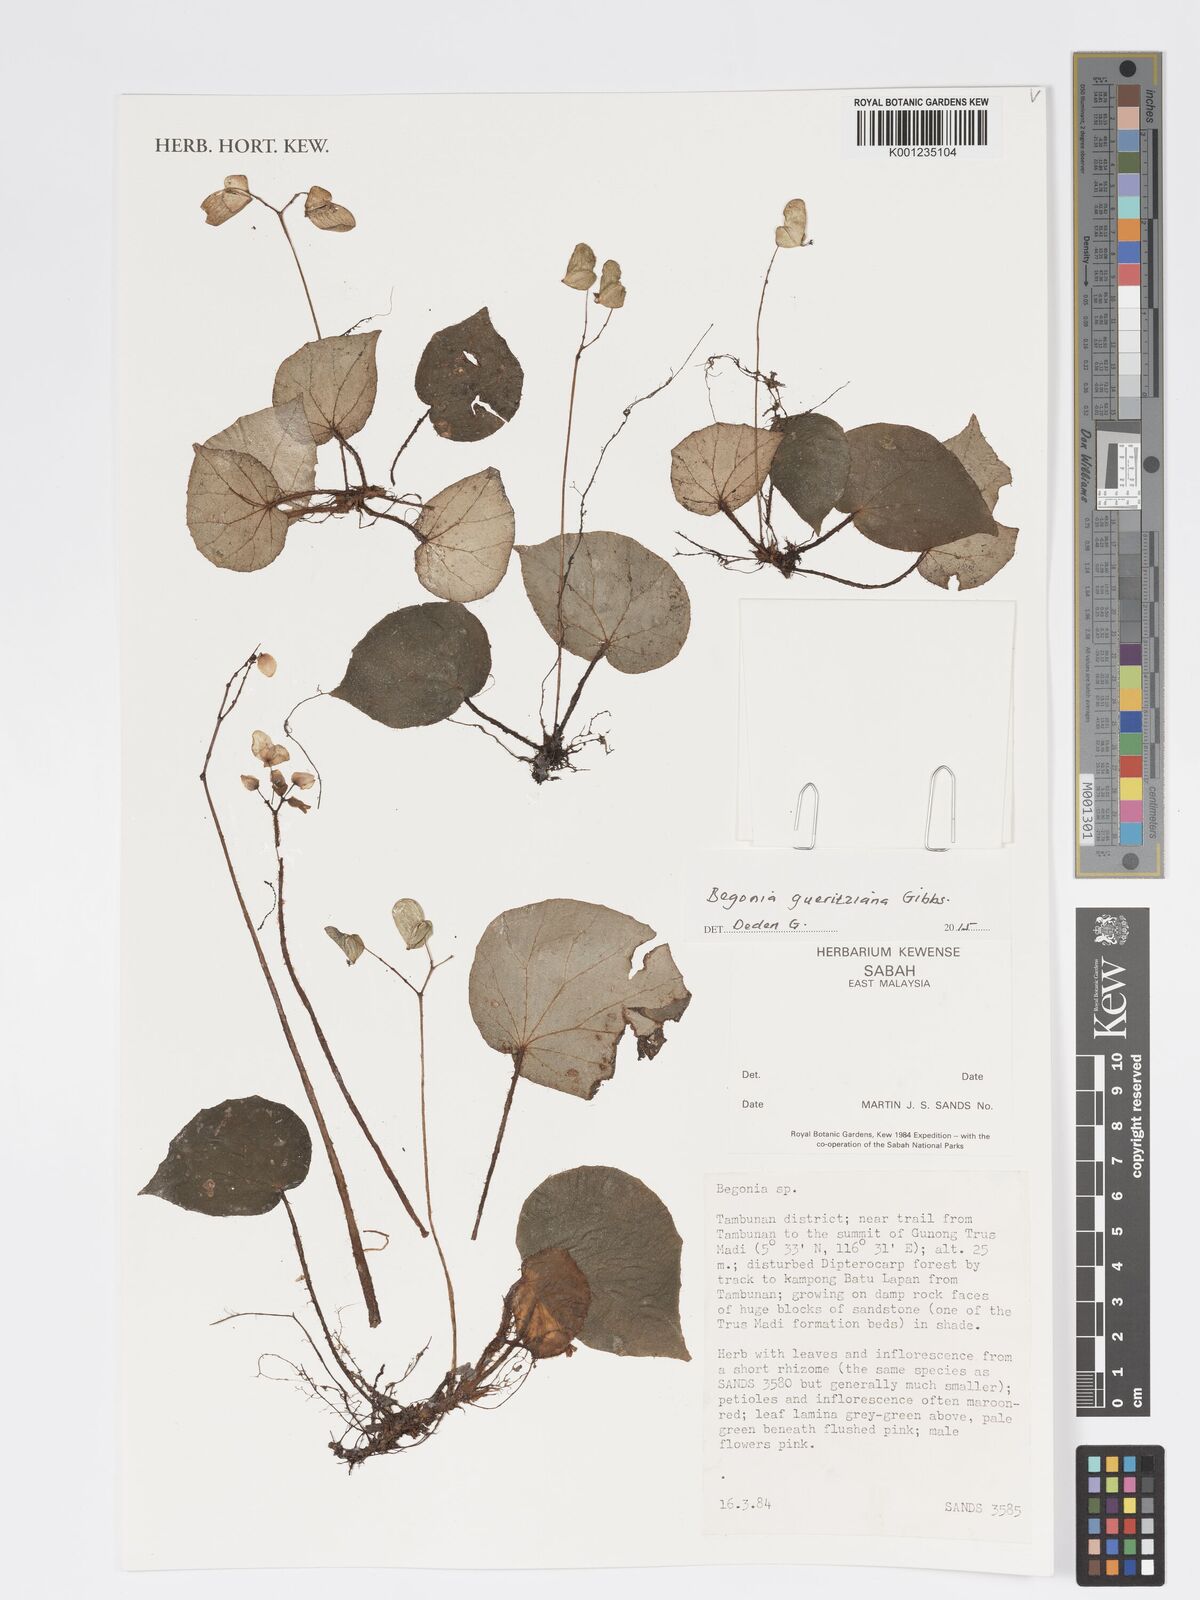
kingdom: Plantae
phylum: Tracheophyta
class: Magnoliopsida
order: Cucurbitales
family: Begoniaceae
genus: Begonia
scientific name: Begonia gueritziana
